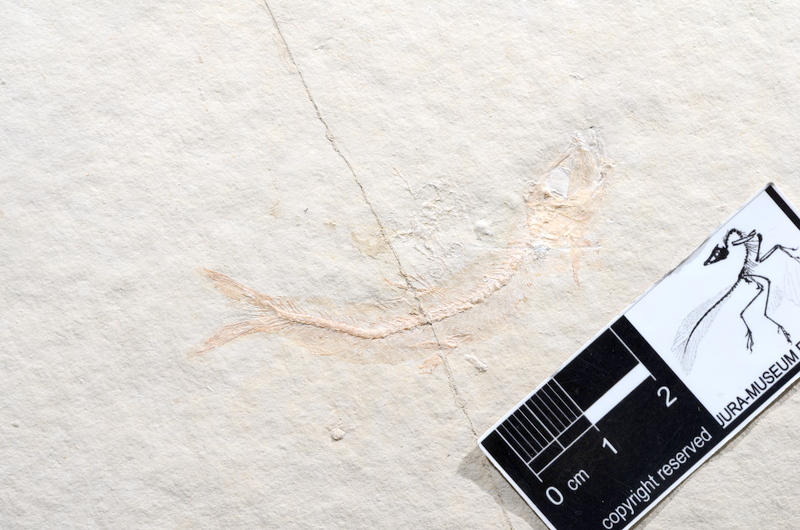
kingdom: Animalia
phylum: Chordata
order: Salmoniformes
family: Orthogonikleithridae
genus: Leptolepides
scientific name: Leptolepides sprattiformis
